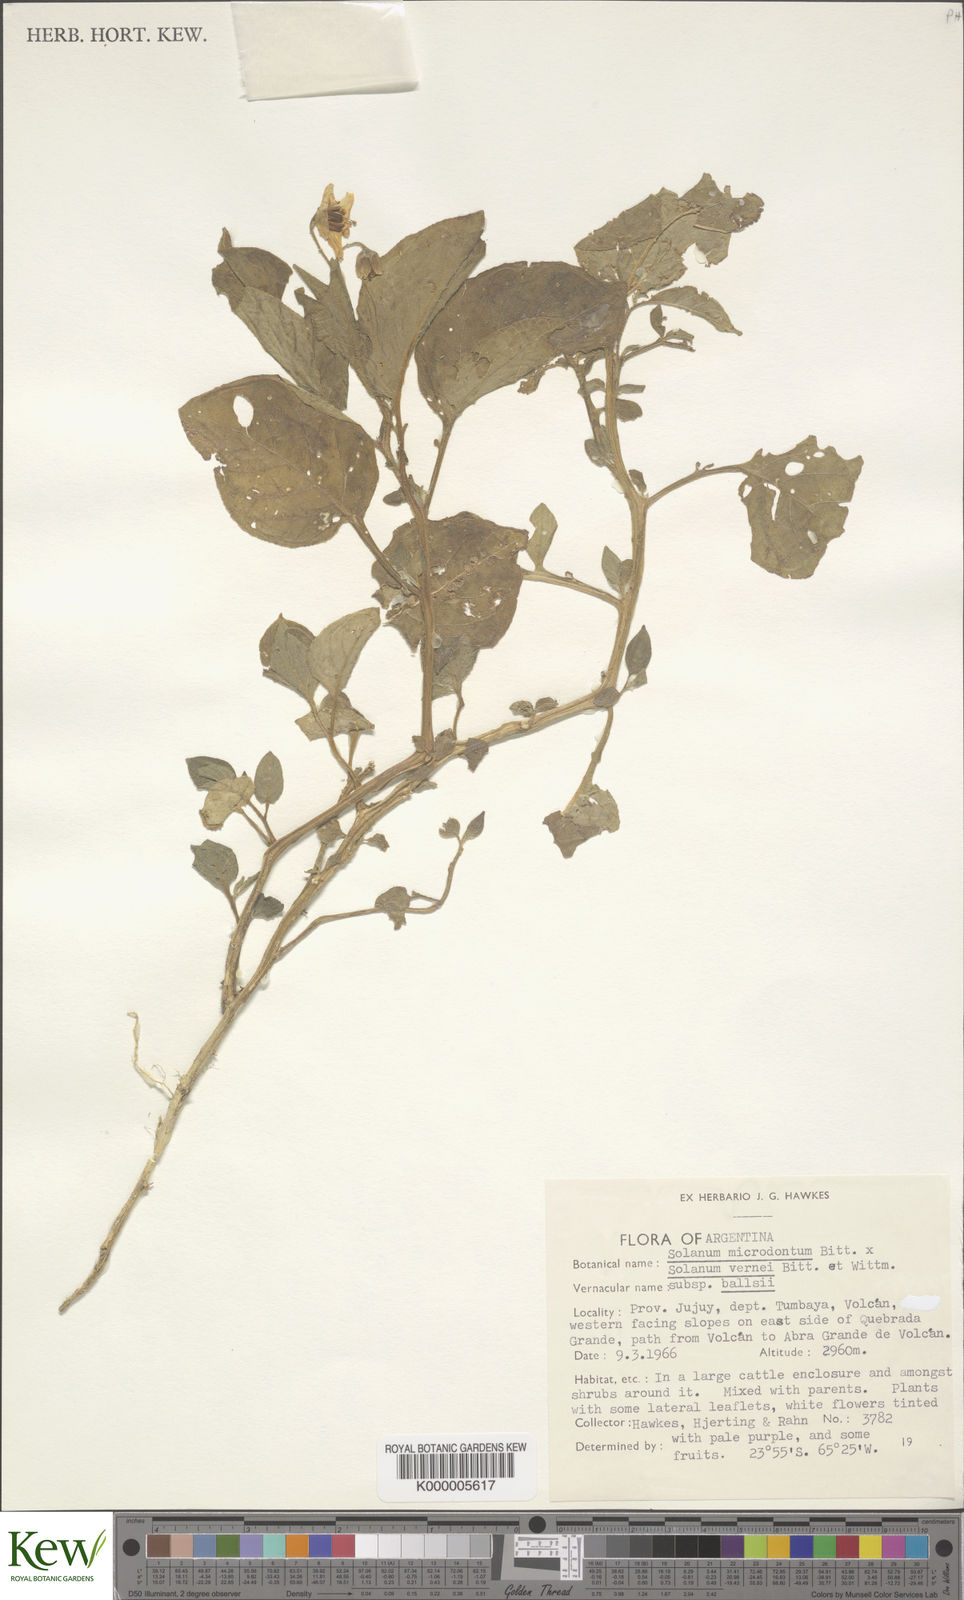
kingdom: Plantae
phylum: Tracheophyta
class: Magnoliopsida
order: Solanales
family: Solanaceae
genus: Solanum
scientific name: Solanum vernei
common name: Purple potato
